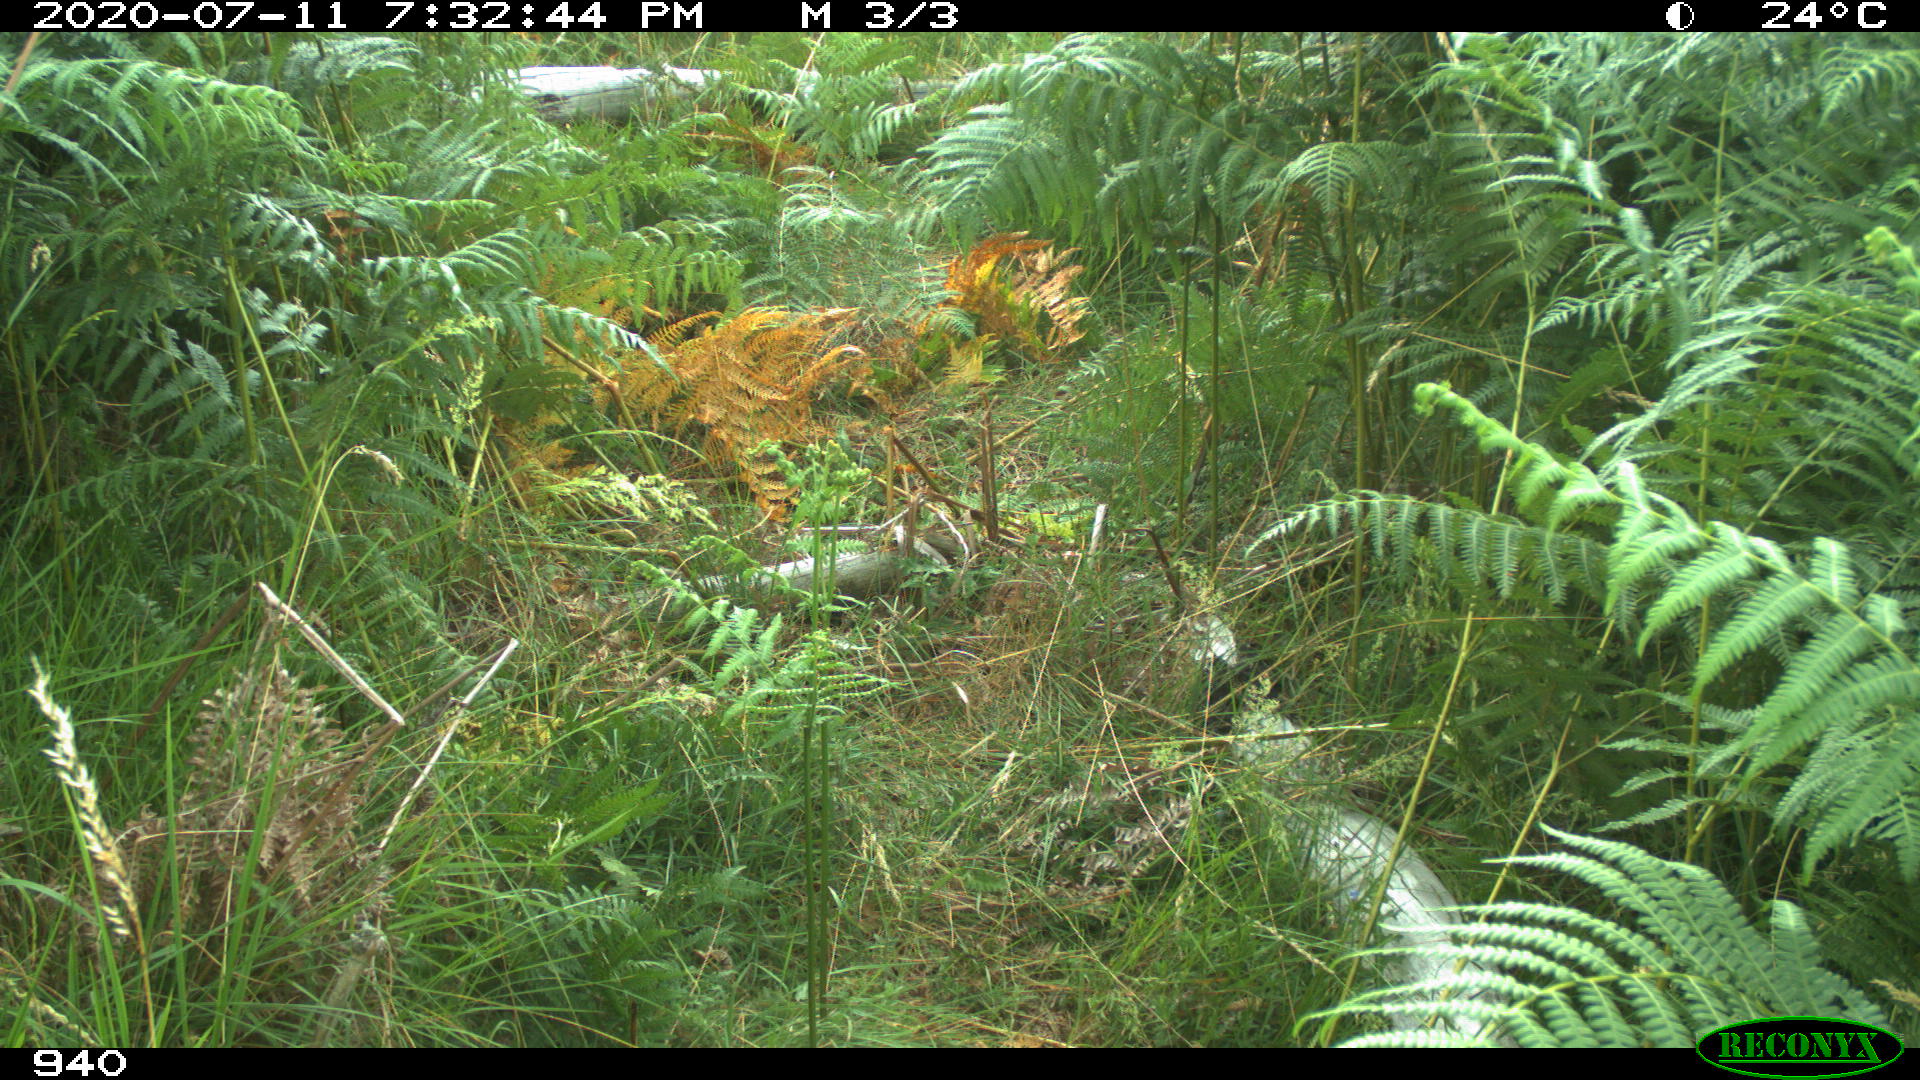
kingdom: Animalia
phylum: Chordata
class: Mammalia
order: Artiodactyla
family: Cervidae
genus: Capreolus
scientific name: Capreolus capreolus
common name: Western roe deer
